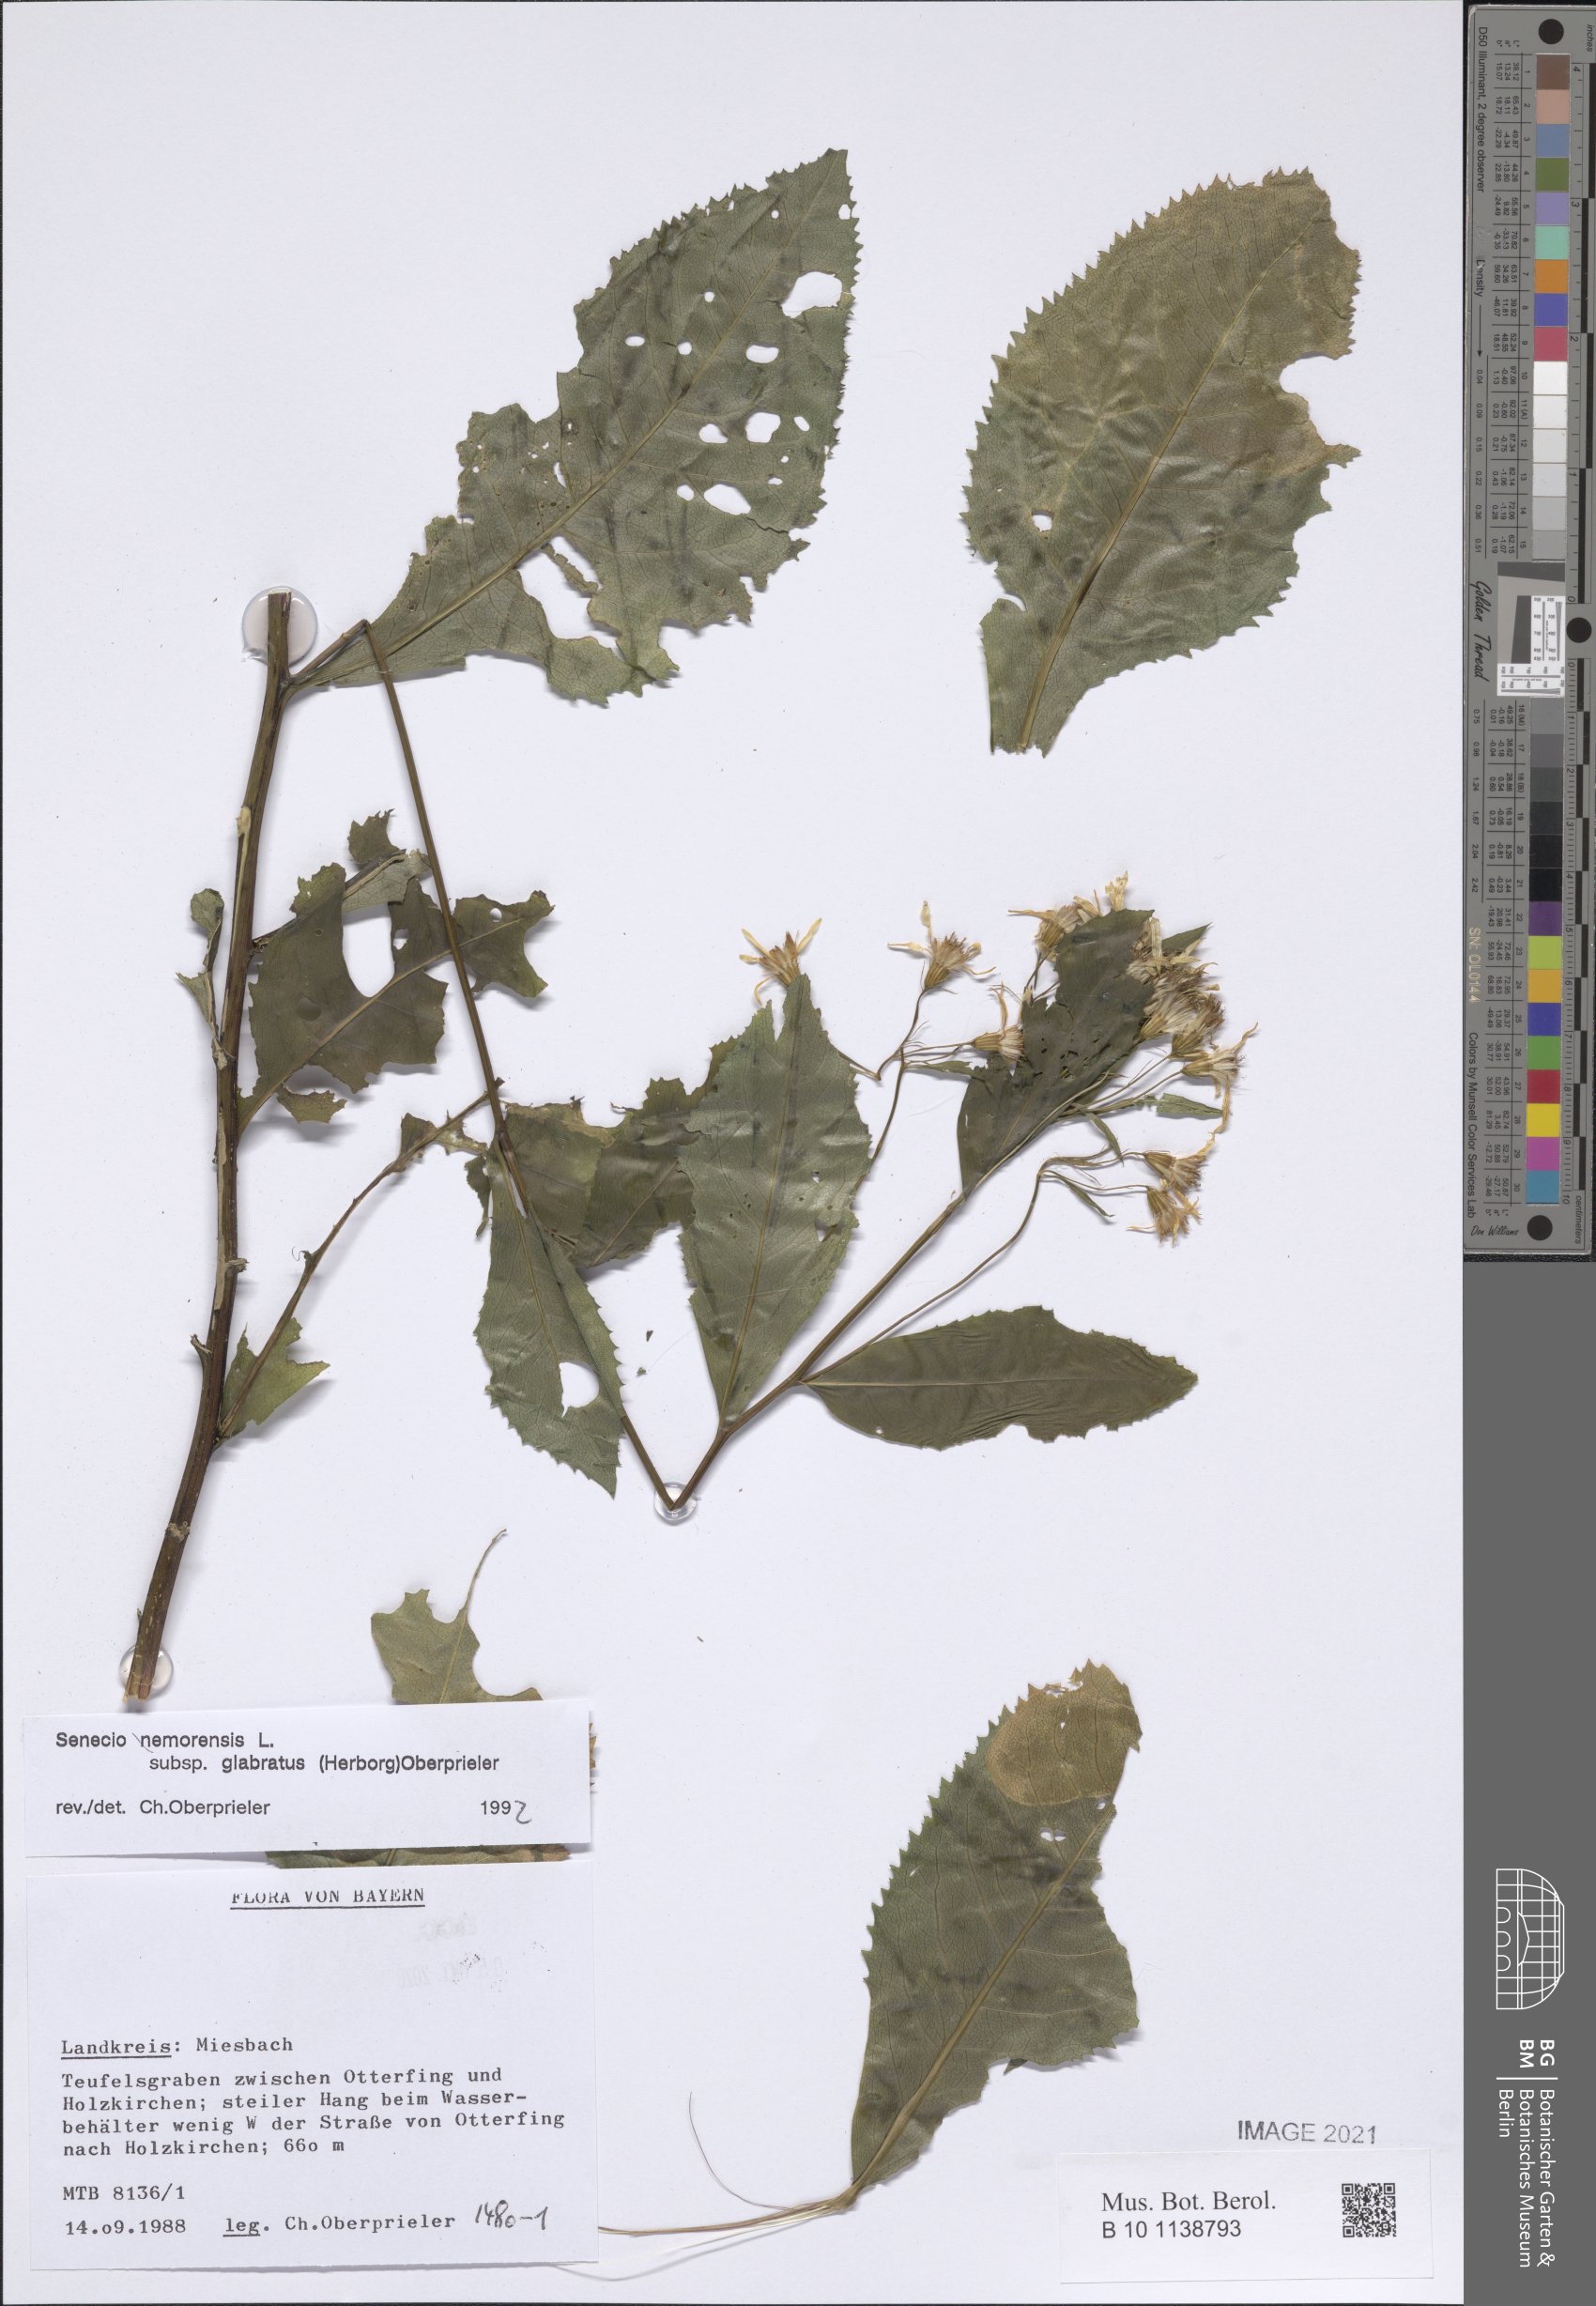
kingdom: Plantae
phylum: Tracheophyta
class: Magnoliopsida
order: Asterales
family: Asteraceae
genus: Senecio
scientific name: Senecio germanicus
